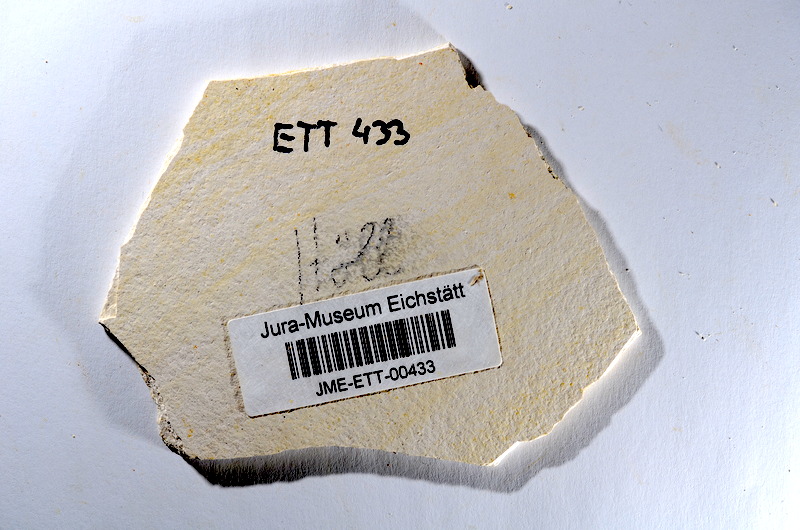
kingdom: Animalia
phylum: Chordata
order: Salmoniformes
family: Orthogonikleithridae
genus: Orthogonikleithrus
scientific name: Orthogonikleithrus hoelli
